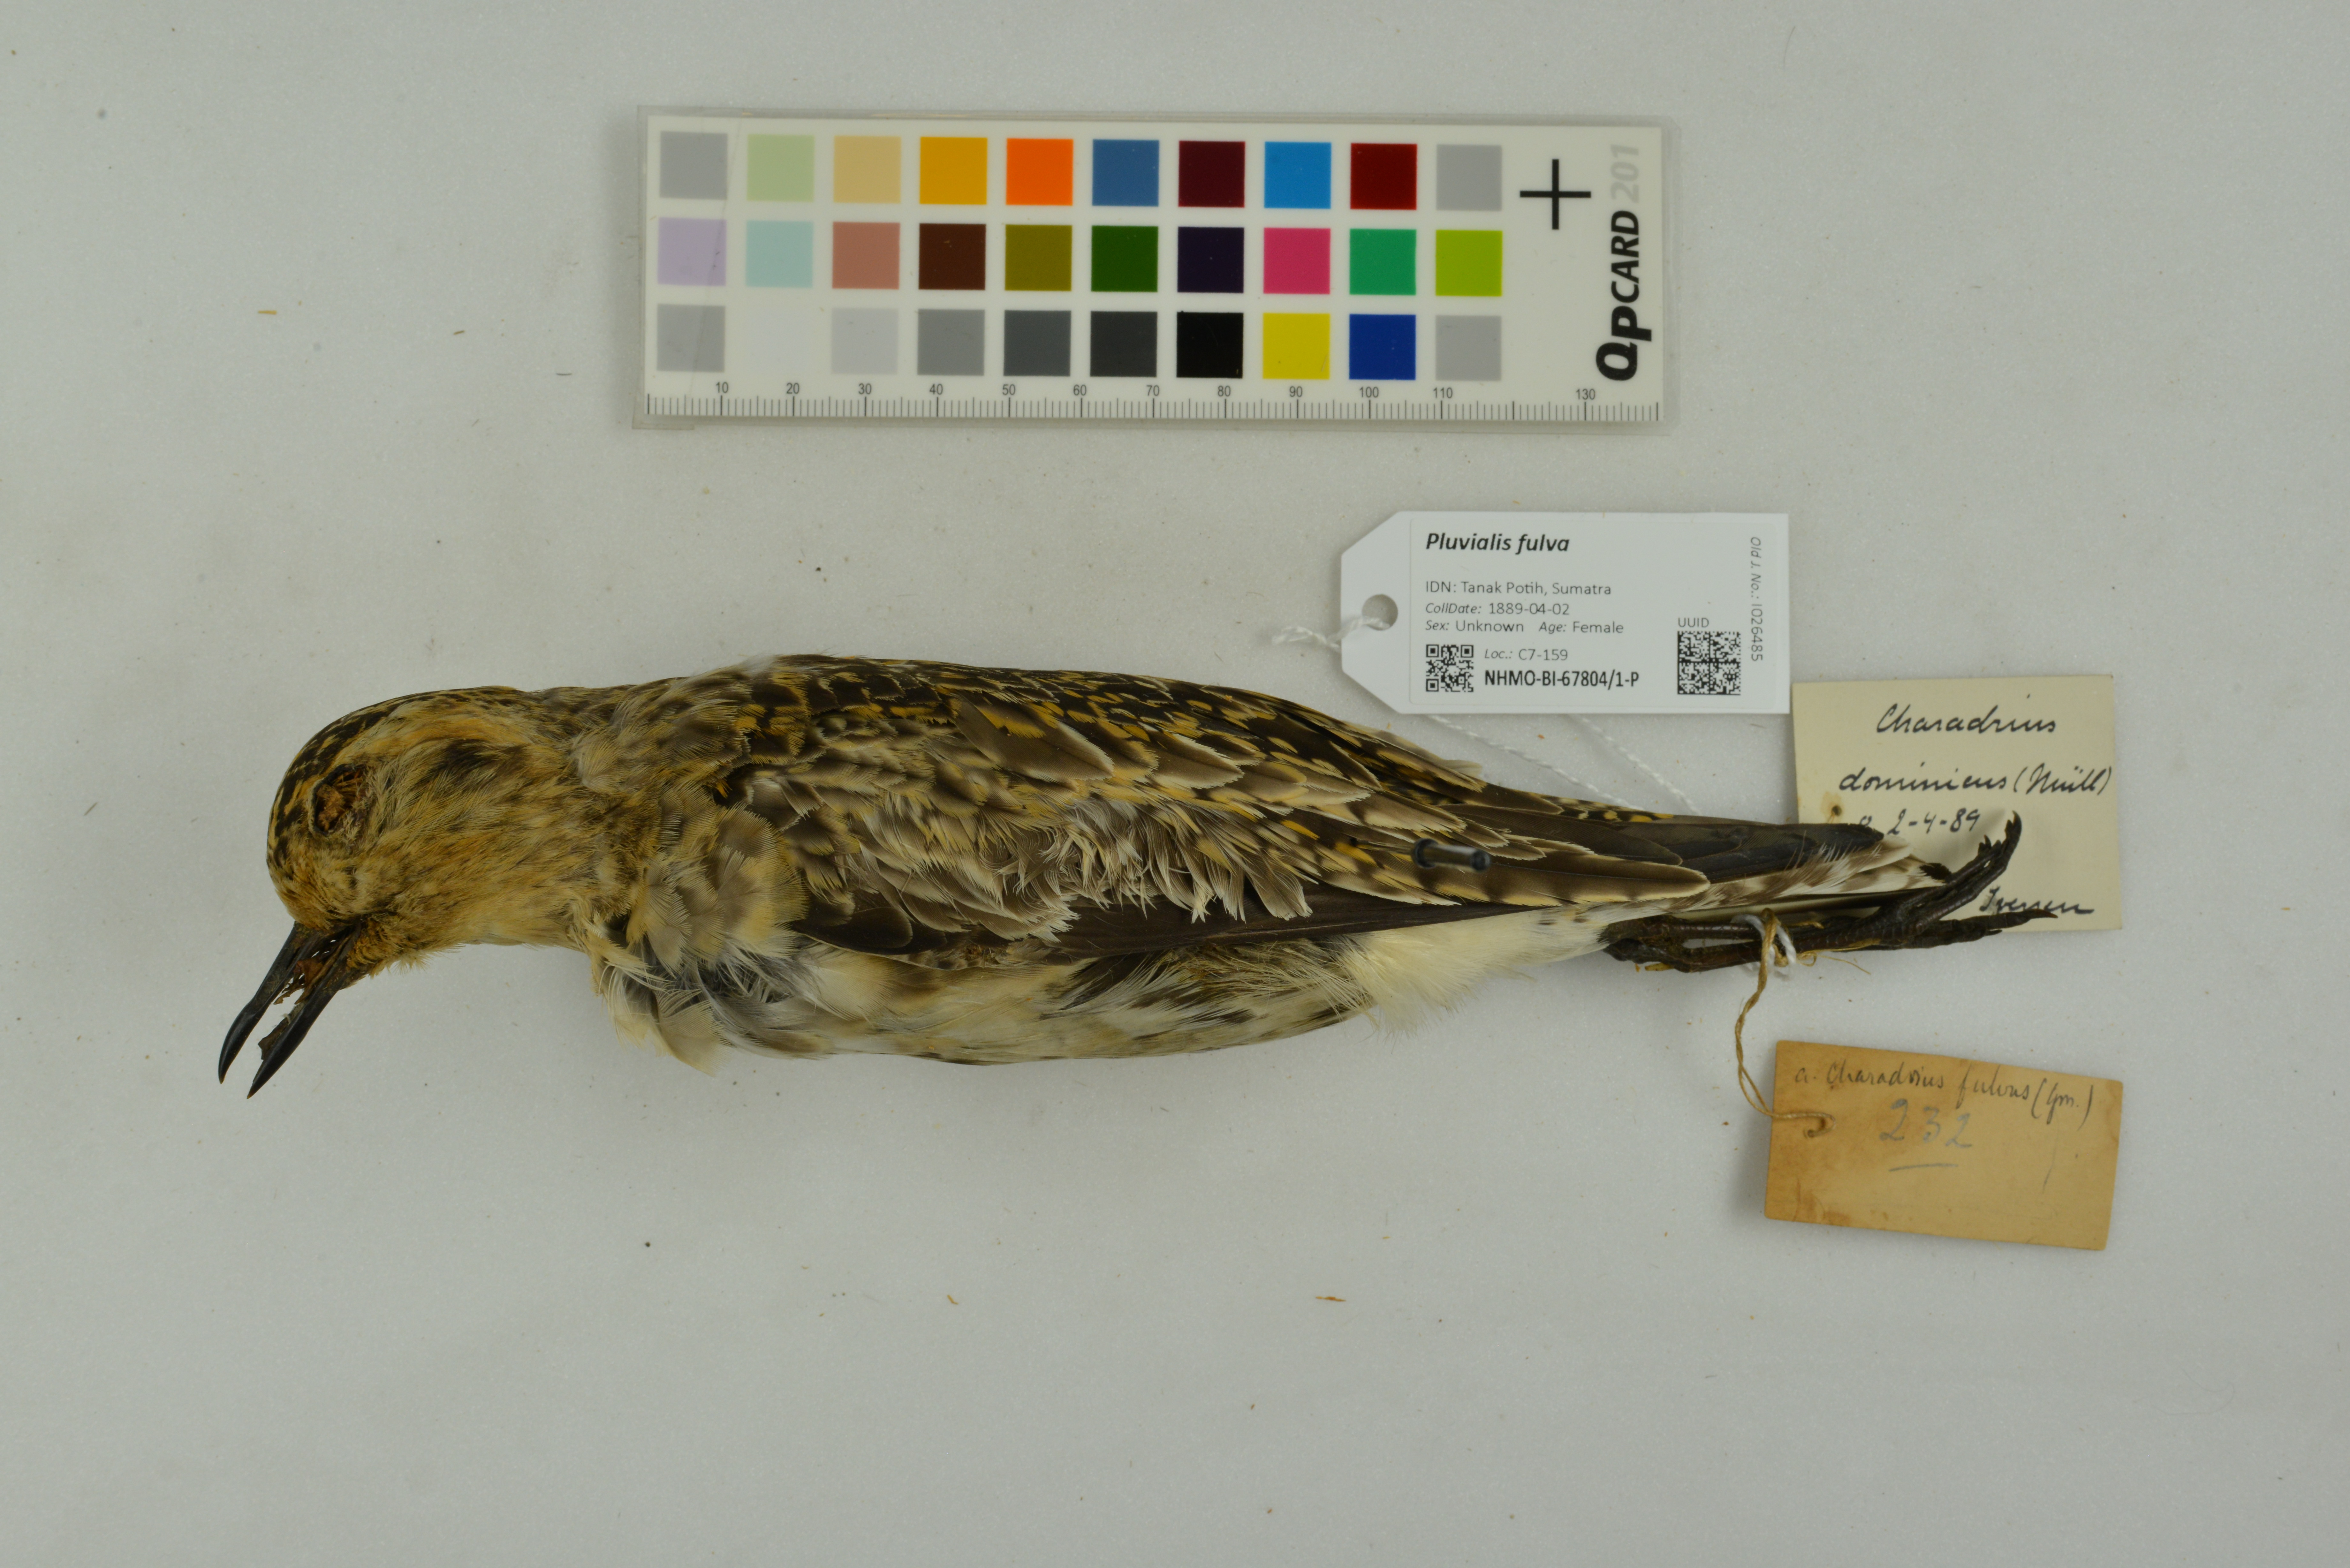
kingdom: Animalia
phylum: Chordata
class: Aves
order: Charadriiformes
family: Charadriidae
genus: Pluvialis
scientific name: Pluvialis fulva
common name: Pacific golden plover
